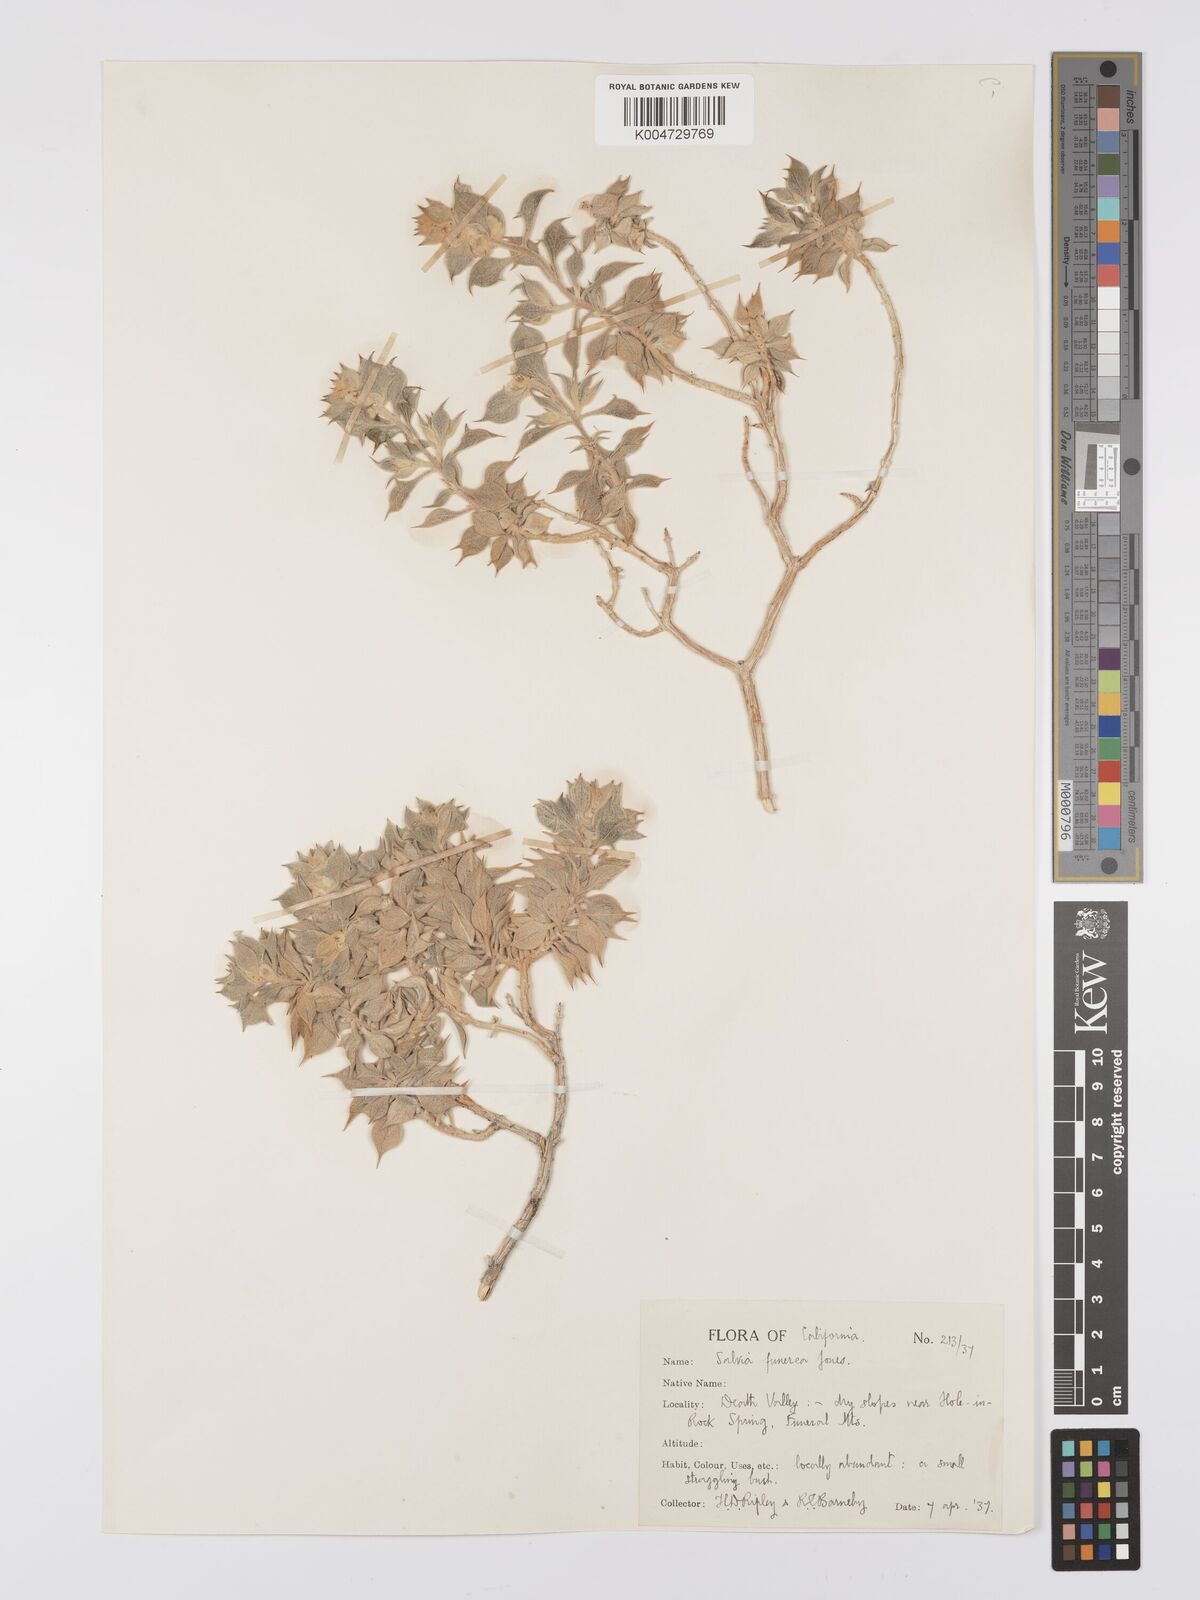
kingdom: Plantae
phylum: Tracheophyta
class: Magnoliopsida
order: Lamiales
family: Lamiaceae
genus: Salvia
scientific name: Salvia funerea
